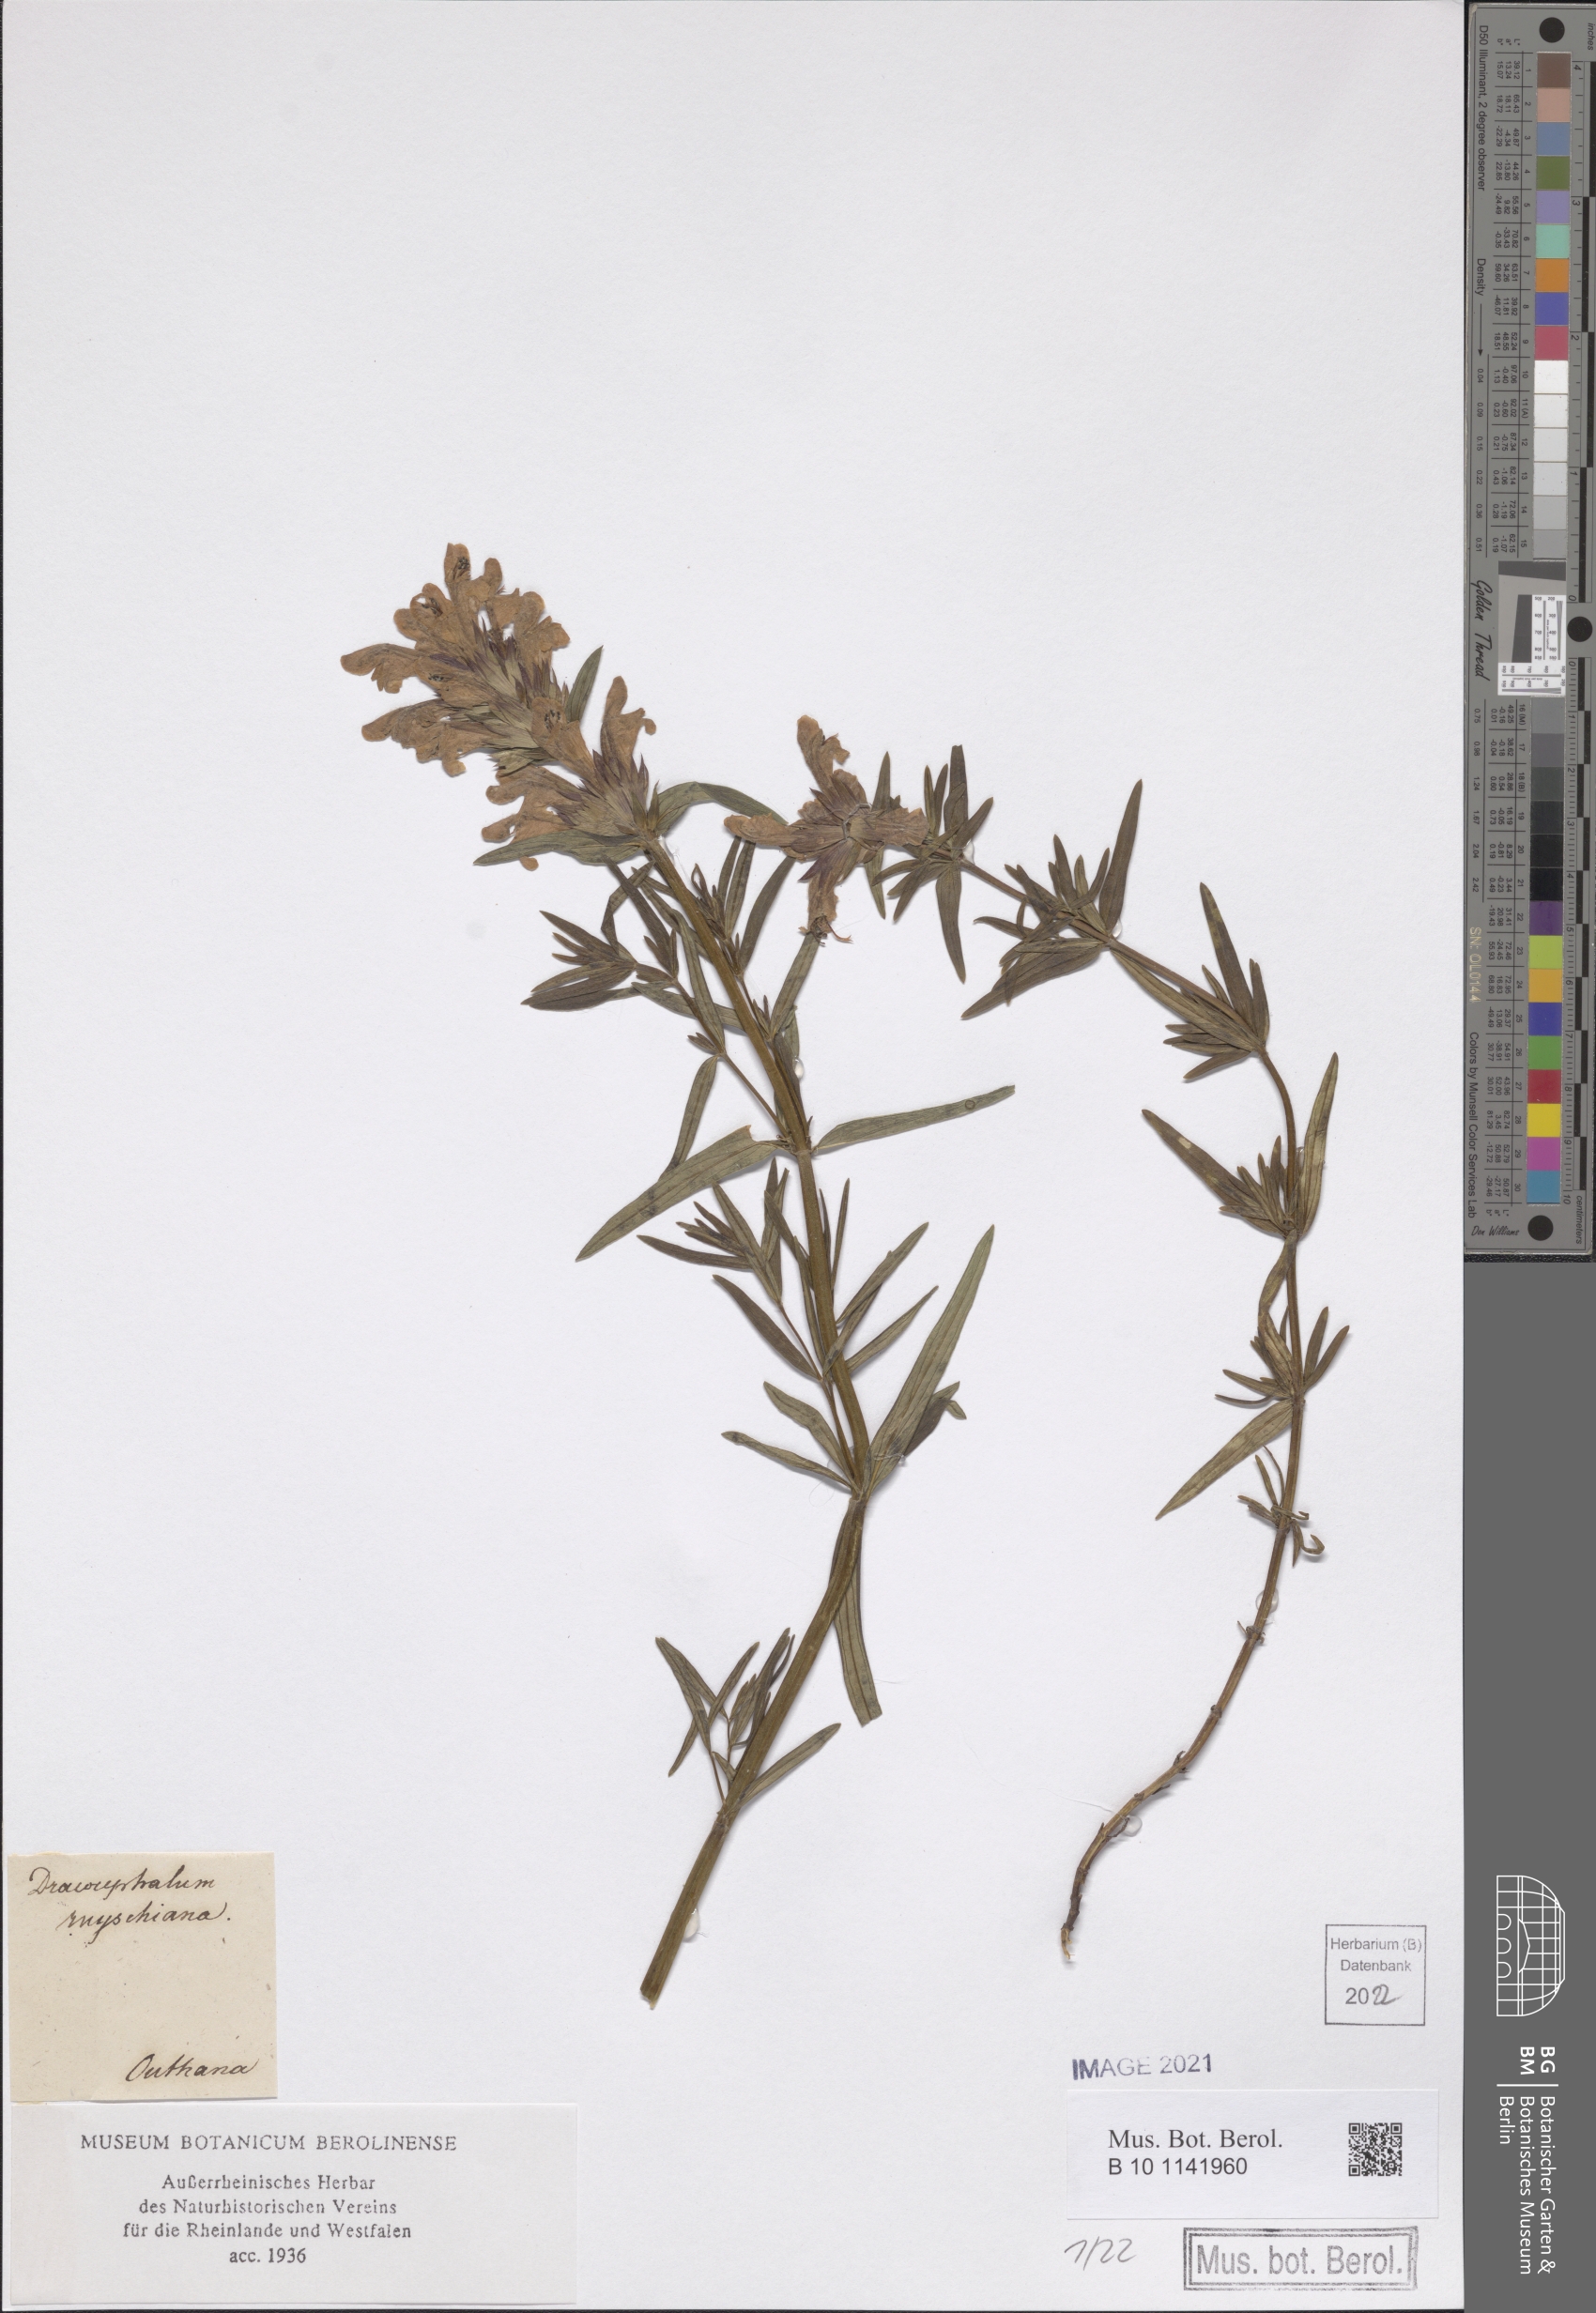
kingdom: Plantae
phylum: Tracheophyta
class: Magnoliopsida
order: Lamiales
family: Lamiaceae
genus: Dracocephalum
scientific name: Dracocephalum ruyschiana
